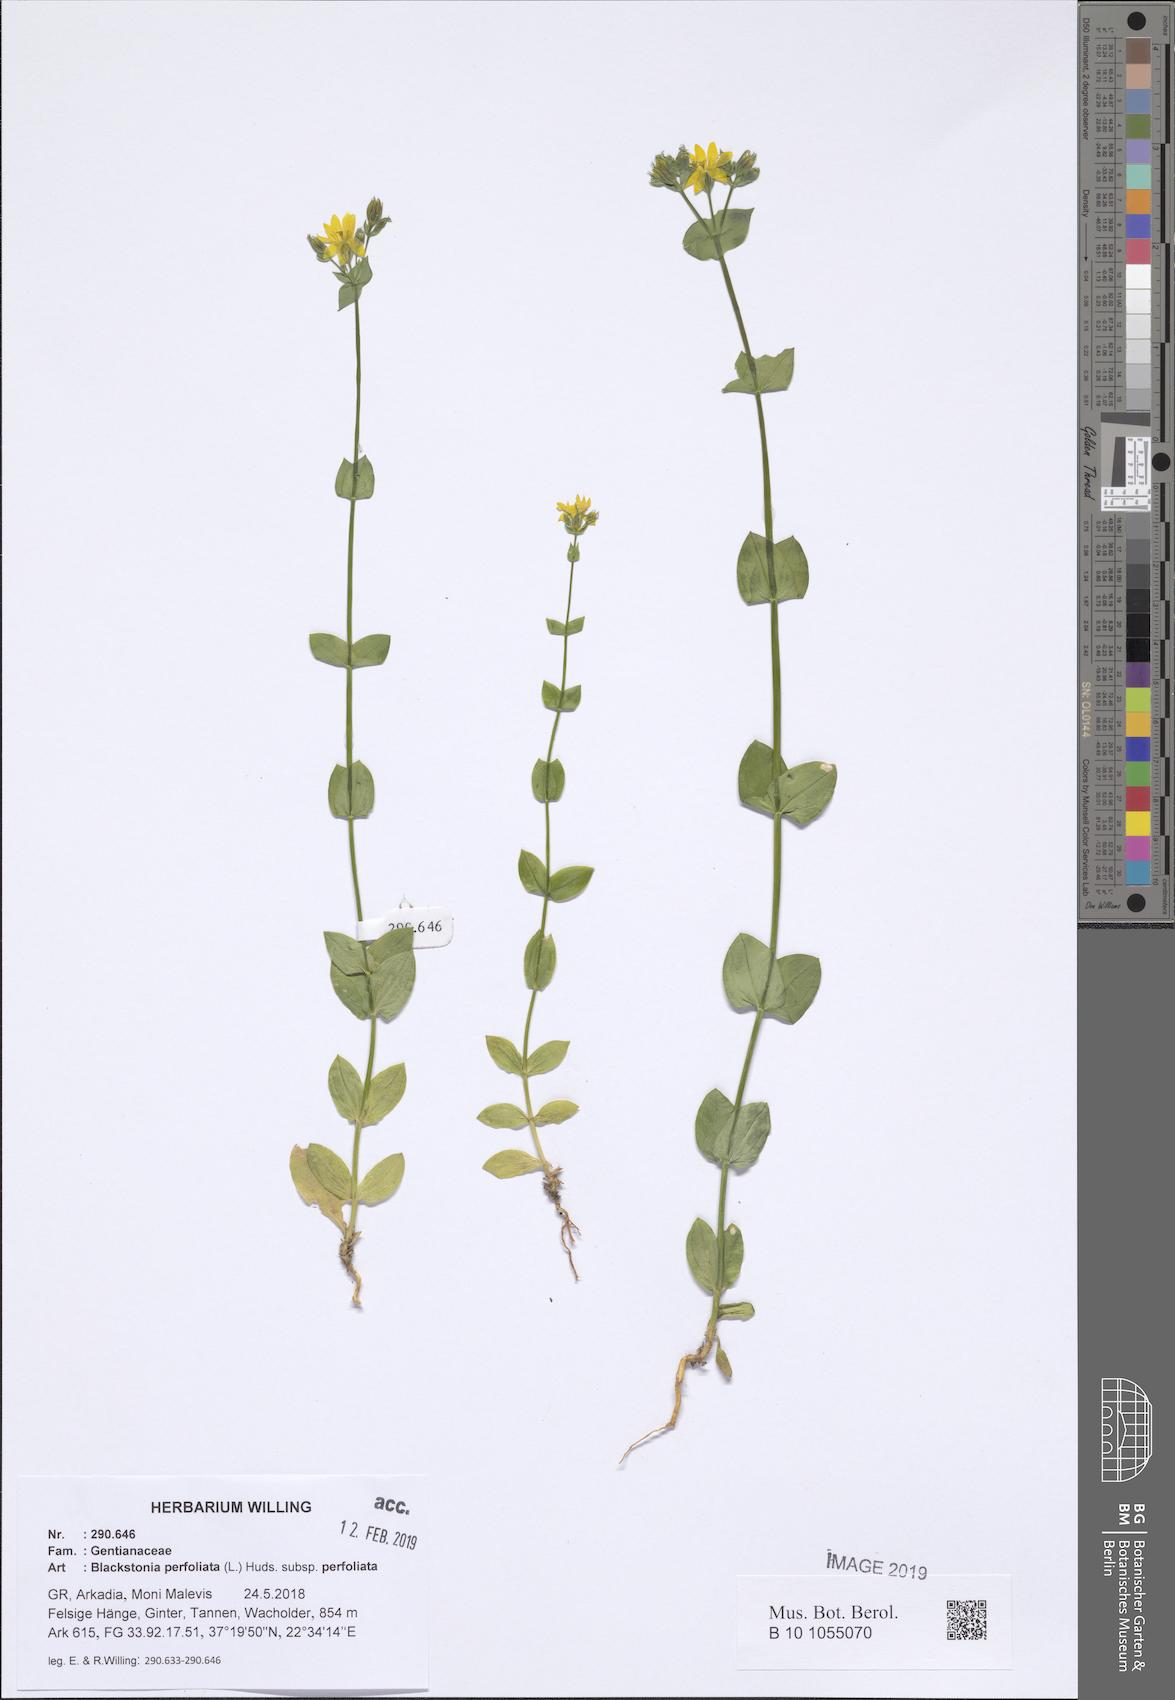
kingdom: Plantae
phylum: Tracheophyta
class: Magnoliopsida
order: Gentianales
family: Gentianaceae
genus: Blackstonia
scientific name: Blackstonia perfoliata
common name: Yellow-wort
